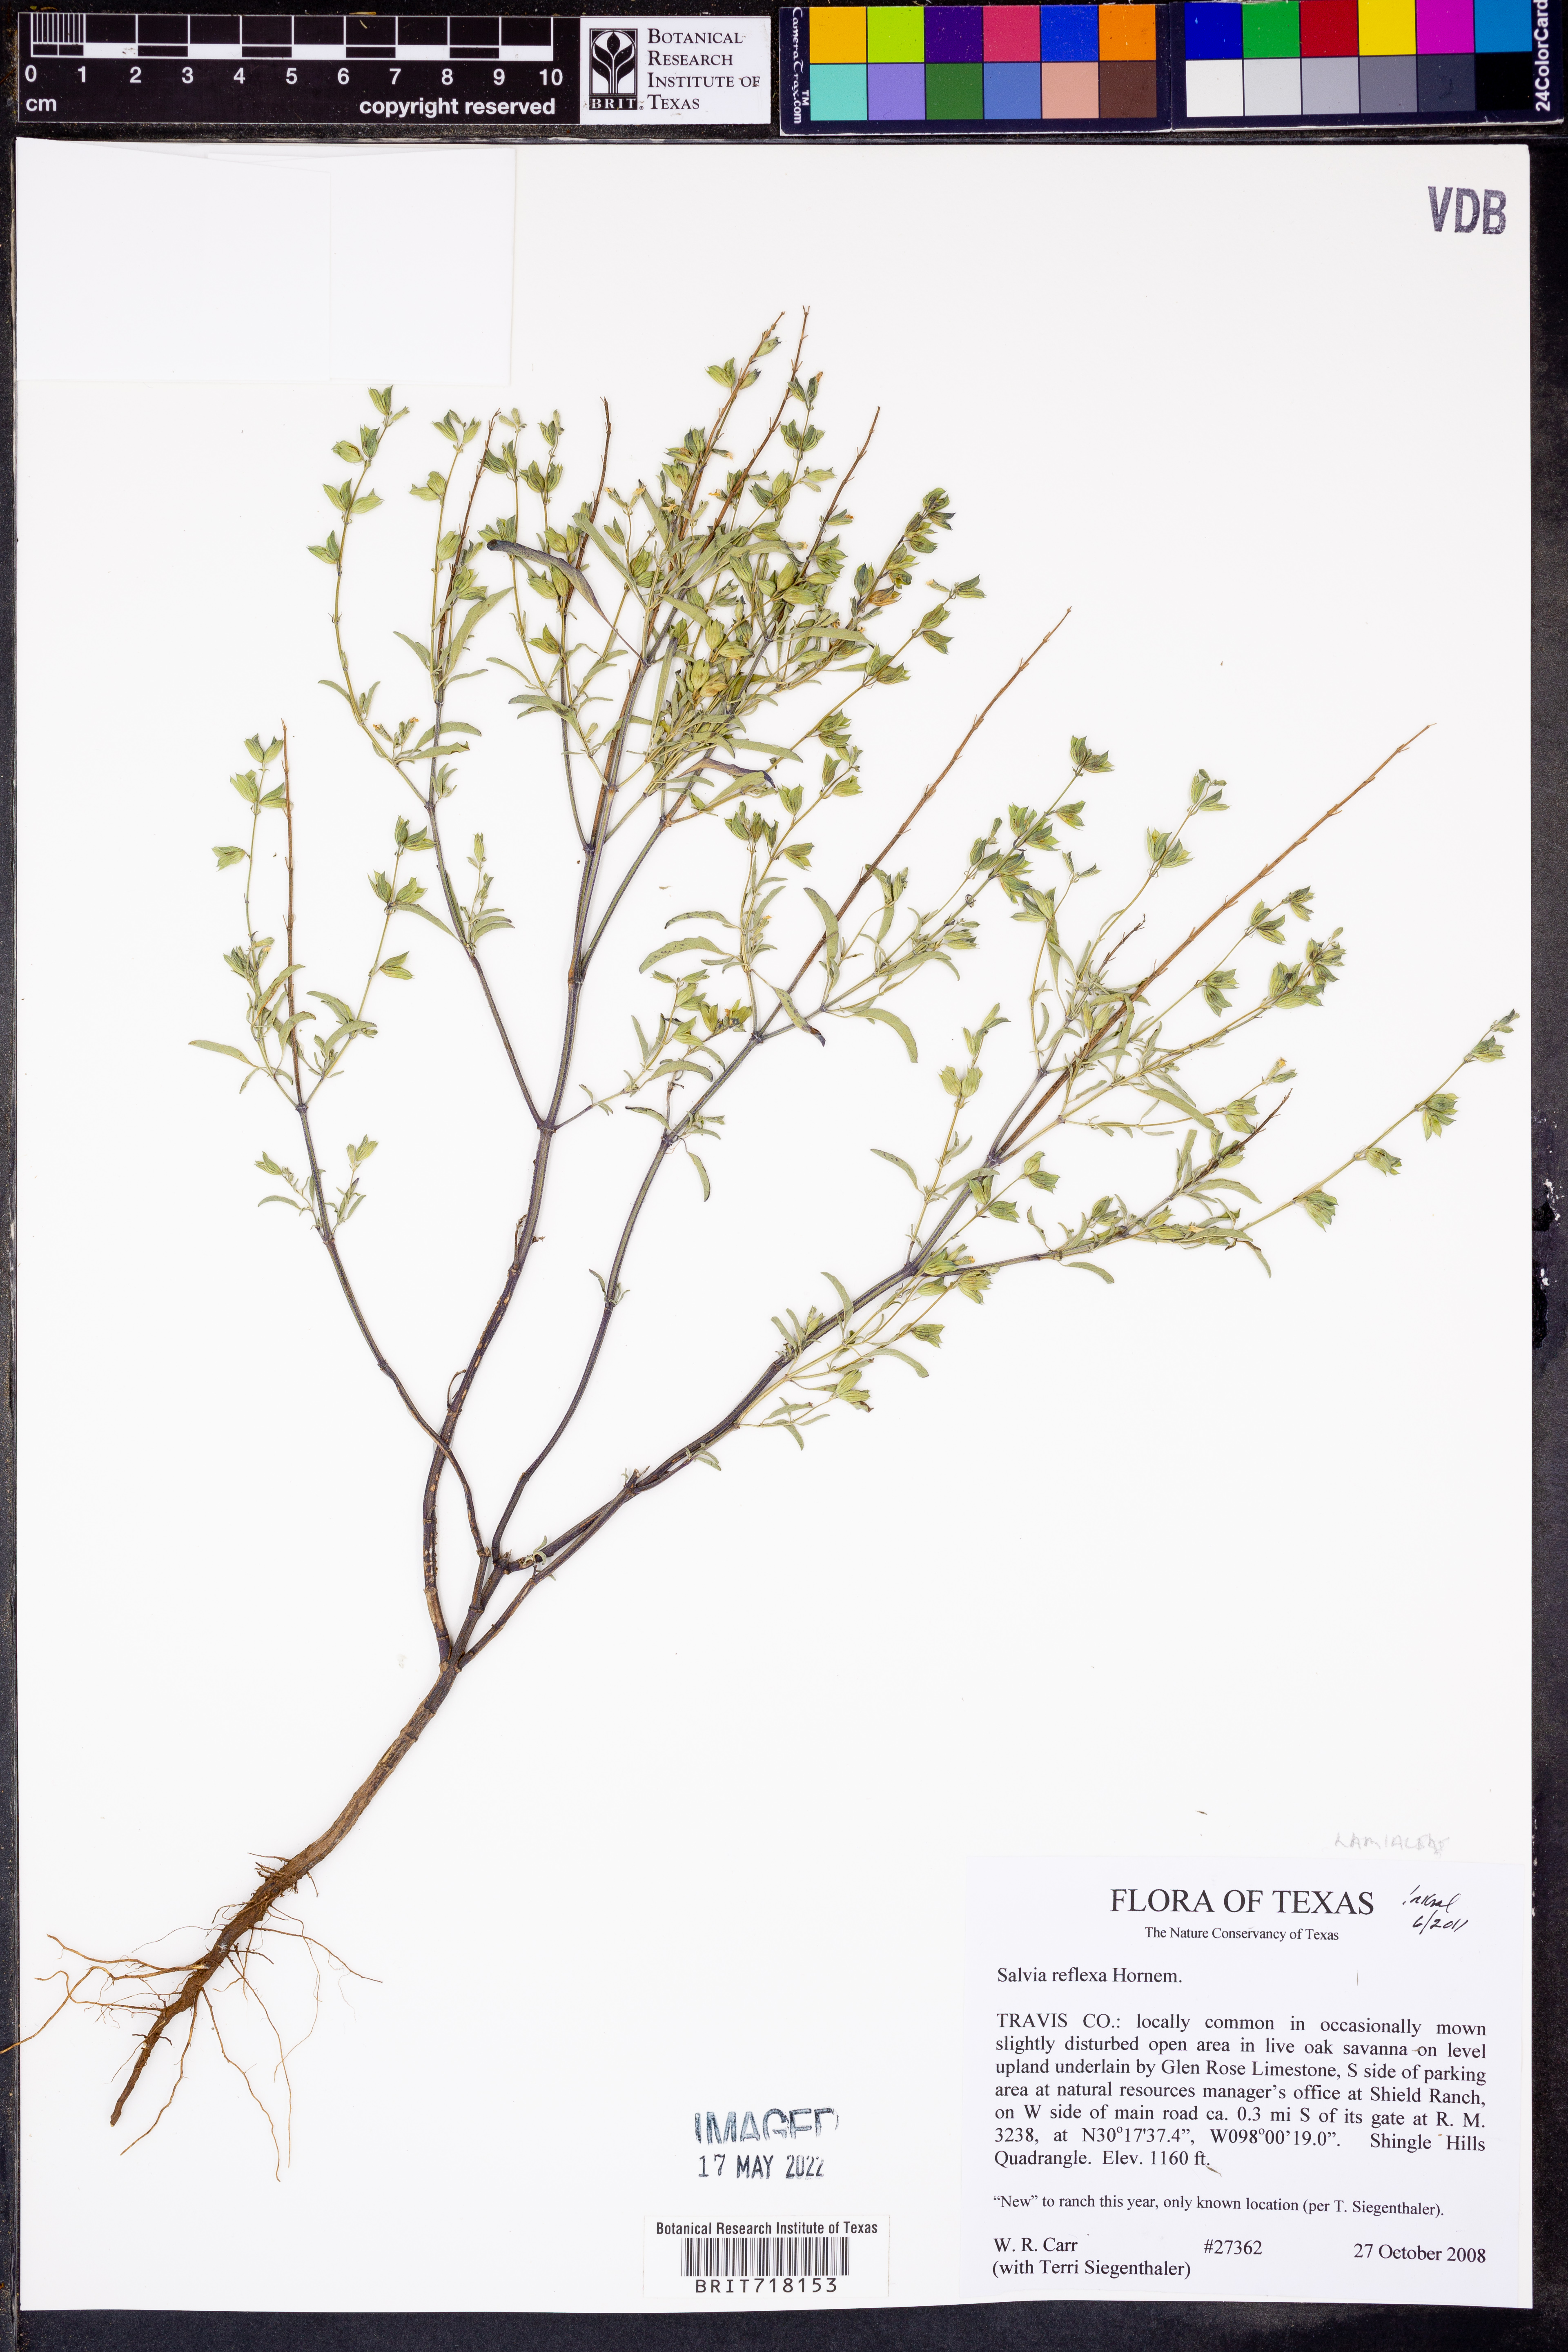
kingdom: Plantae
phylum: Tracheophyta
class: Magnoliopsida
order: Lamiales
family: Lamiaceae
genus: Salvia
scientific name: Salvia reflexa
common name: Mintweed
